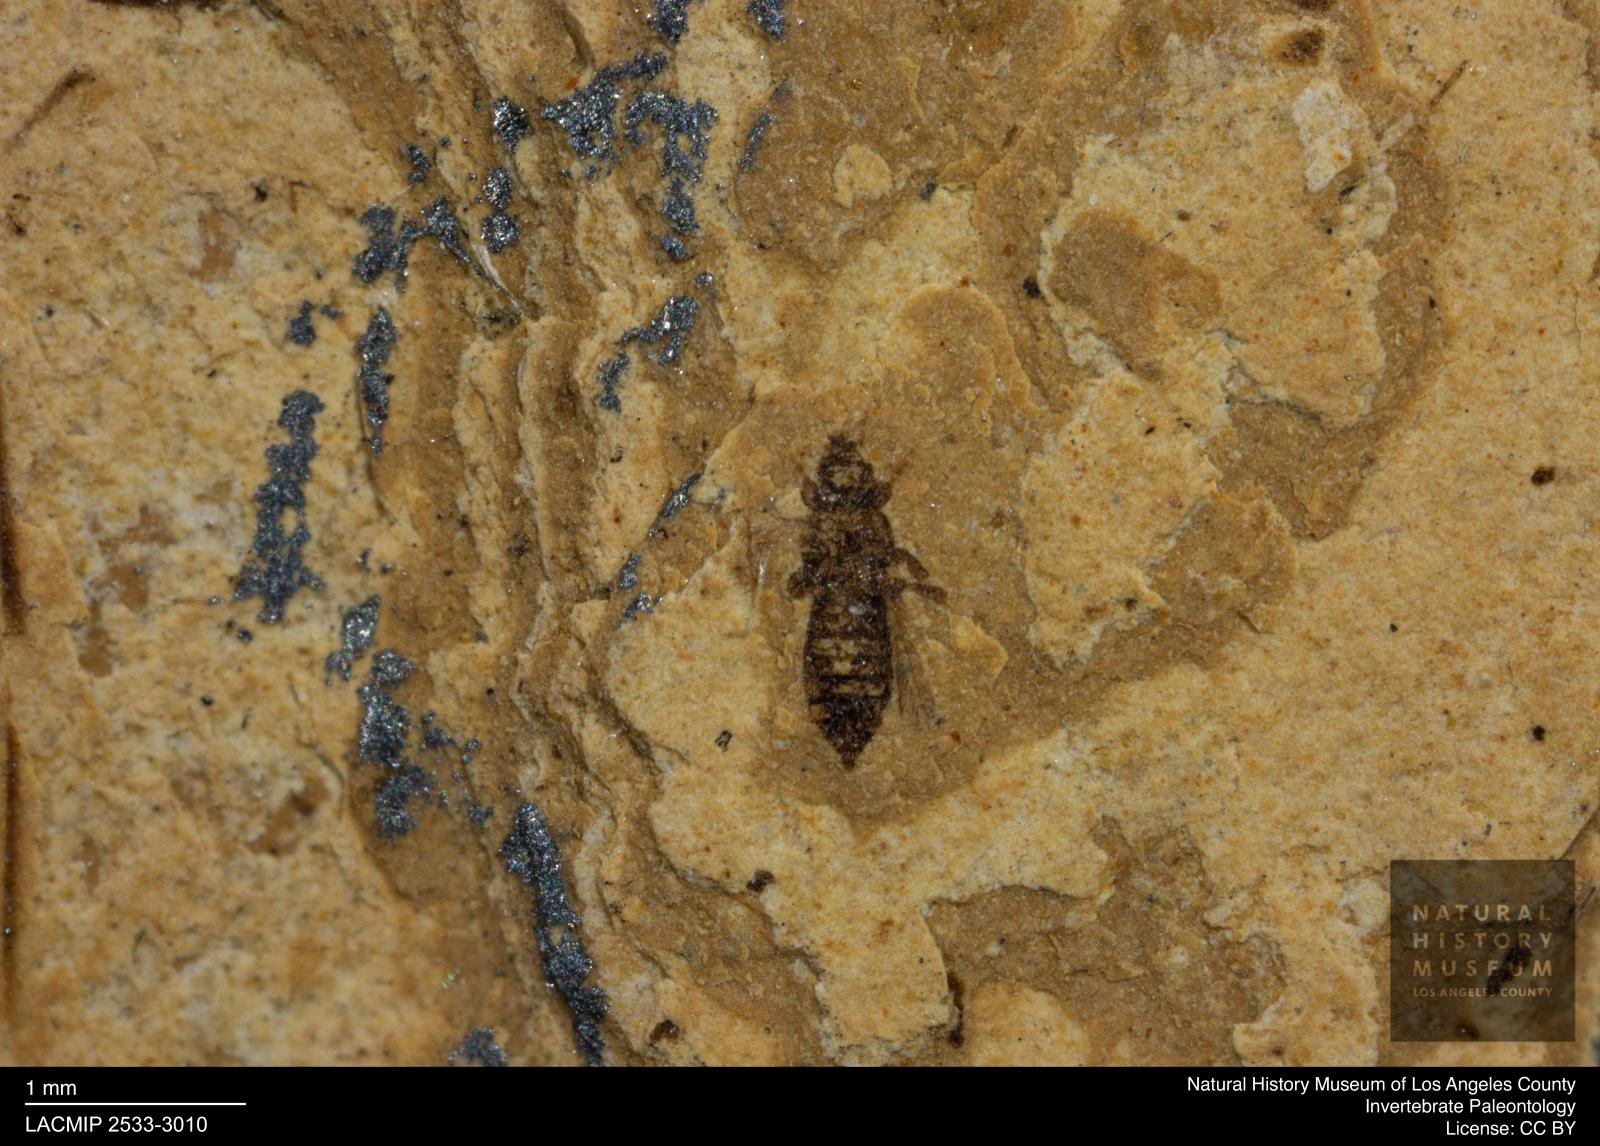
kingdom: Animalia
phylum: Arthropoda
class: Insecta
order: Thysanoptera
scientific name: Thysanoptera
